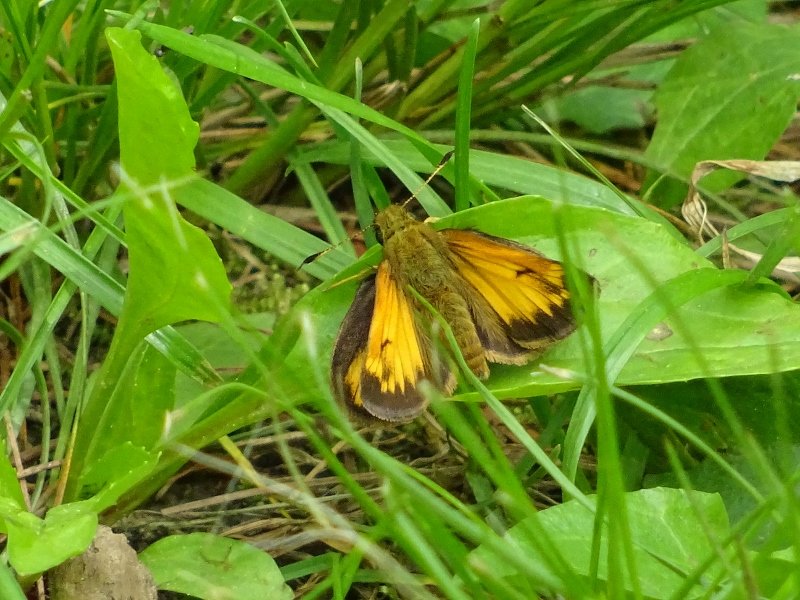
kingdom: Animalia
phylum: Arthropoda
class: Insecta
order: Lepidoptera
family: Hesperiidae
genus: Lon
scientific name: Lon hobomok
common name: Hobomok Skipper
